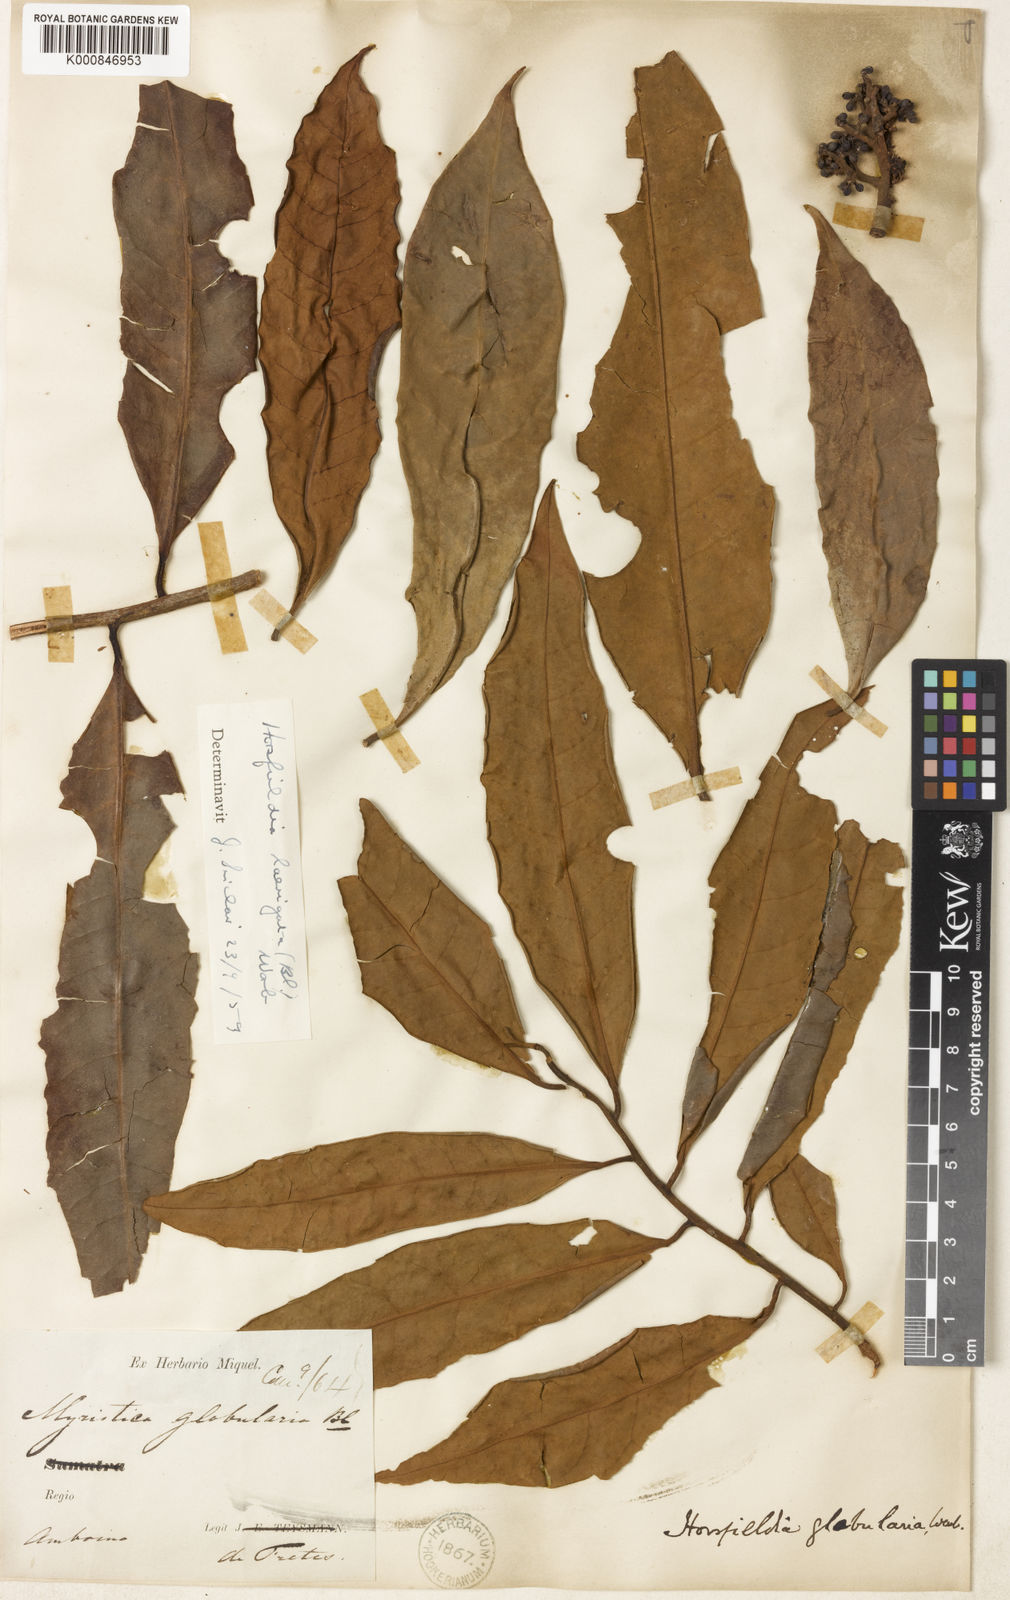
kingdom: Plantae
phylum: Tracheophyta
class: Magnoliopsida
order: Magnoliales
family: Myristicaceae
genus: Horsfieldia
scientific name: Horsfieldia laevigata
